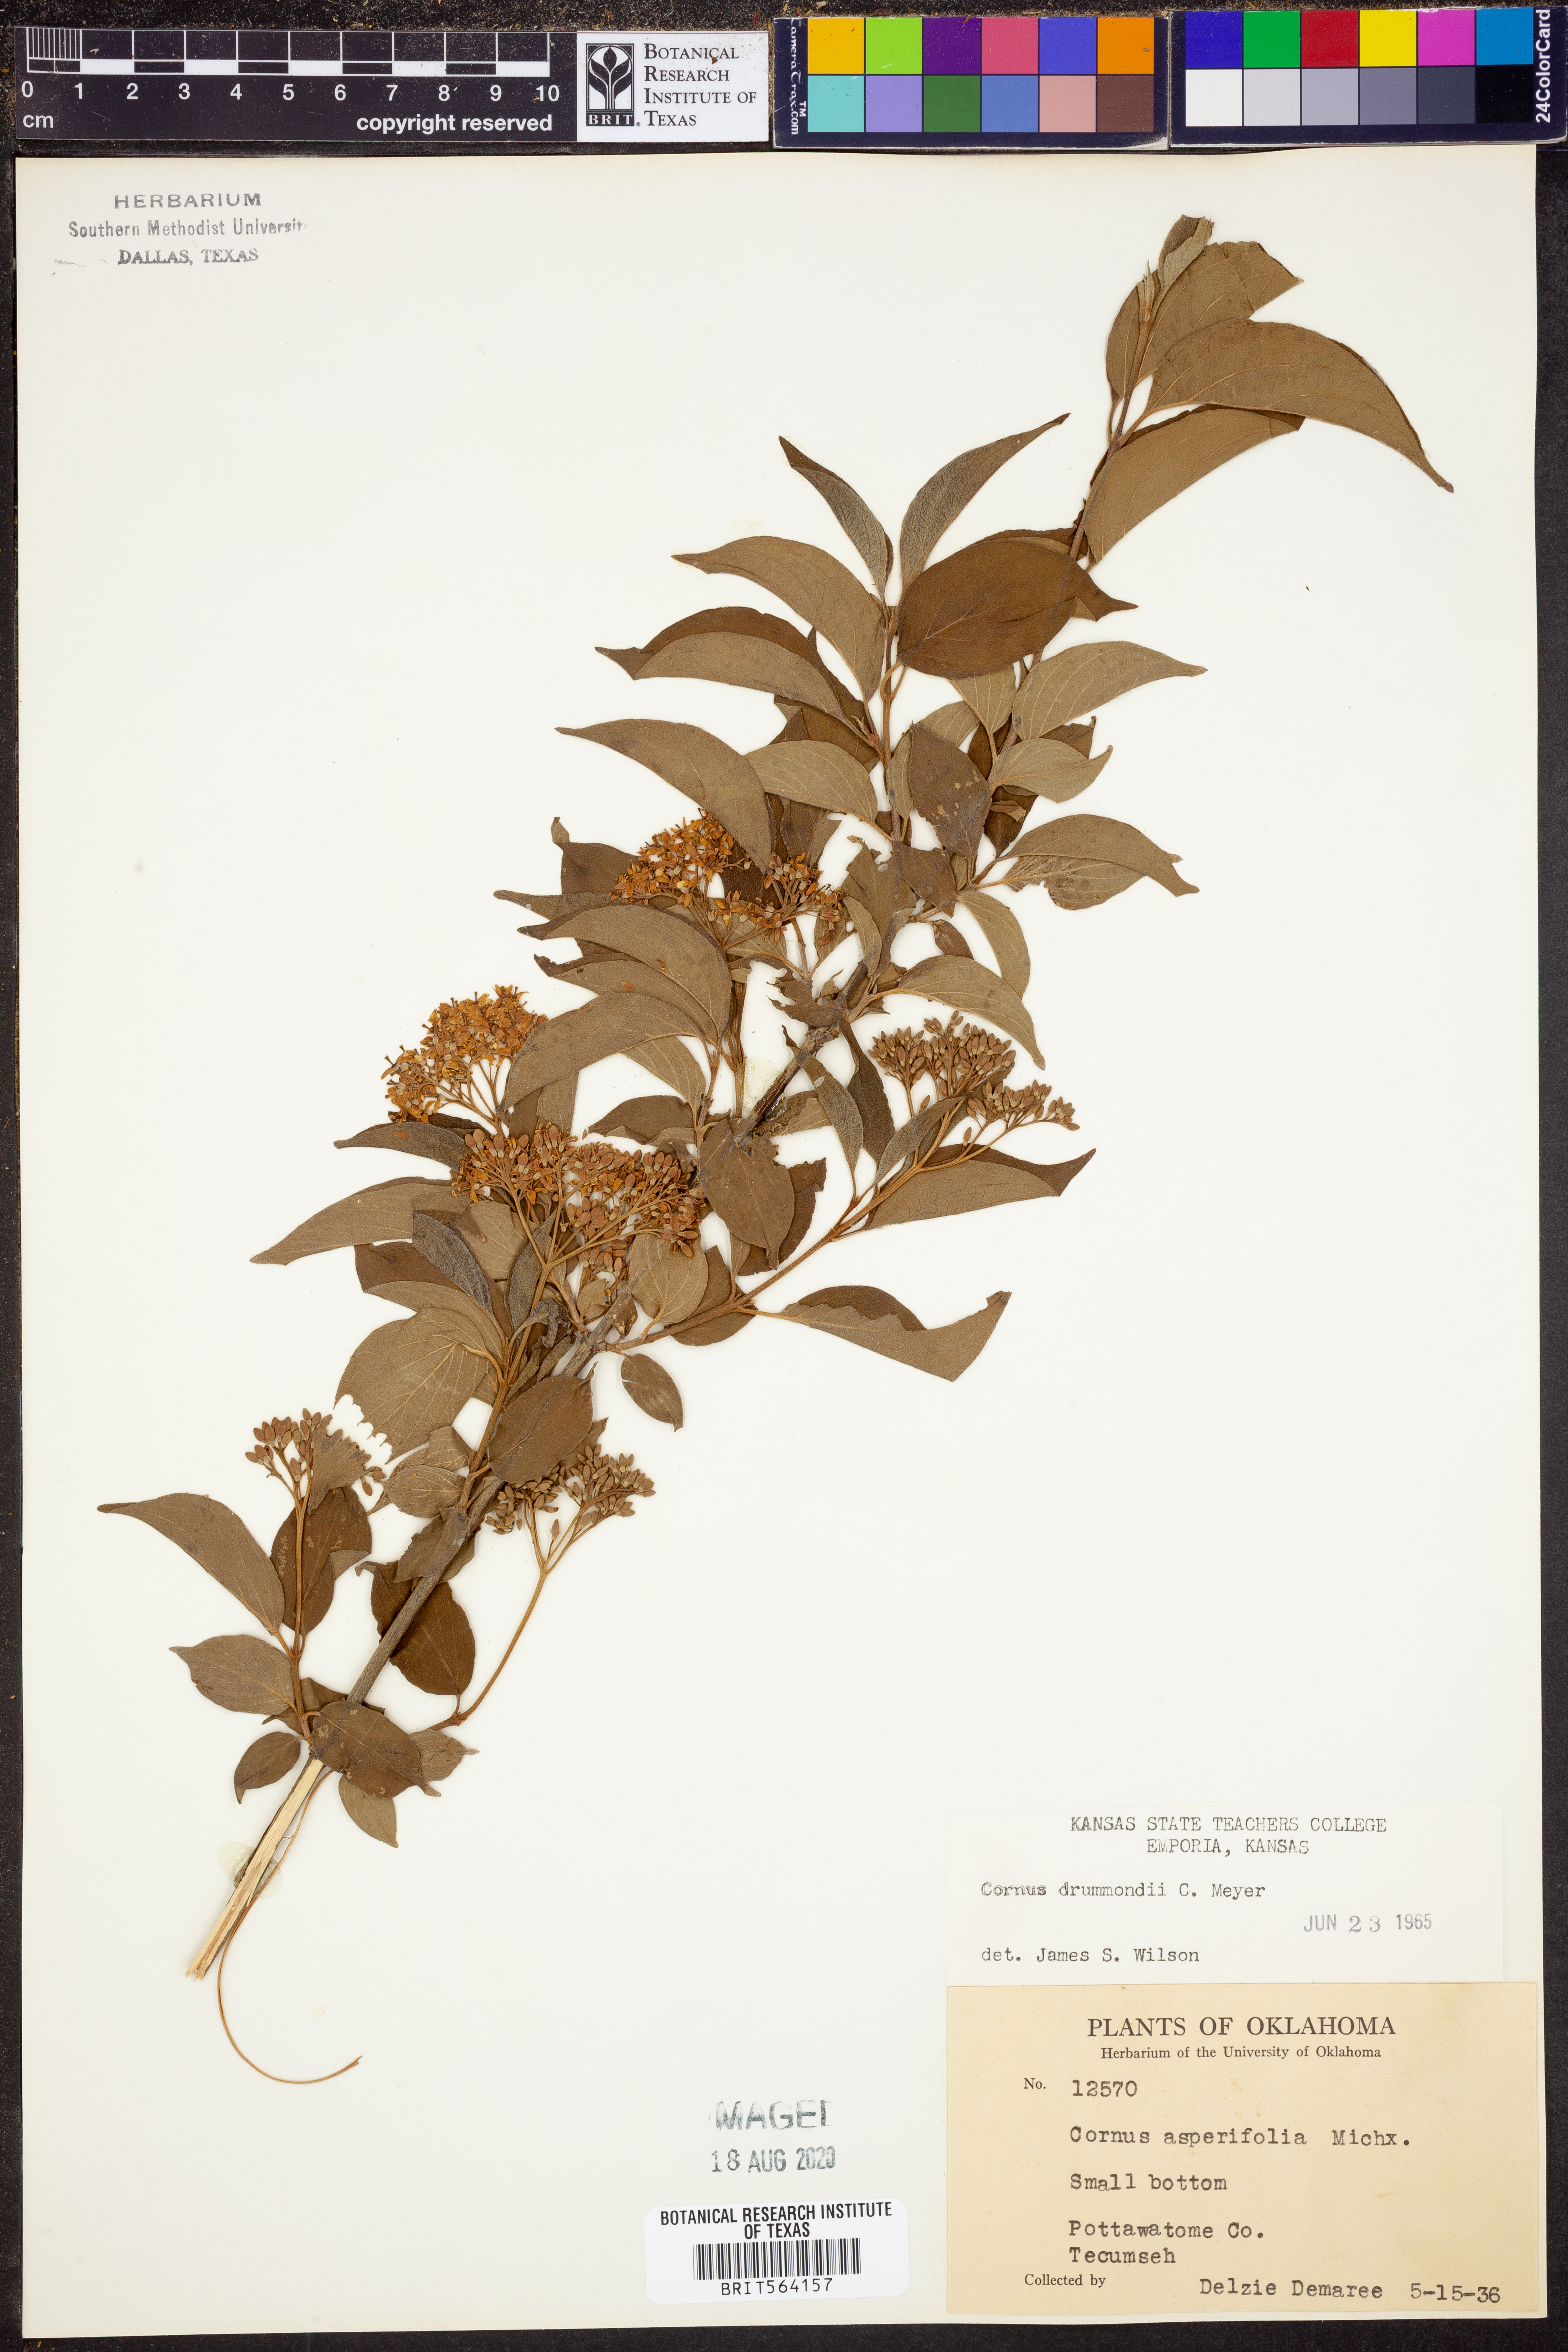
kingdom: Plantae
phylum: Tracheophyta
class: Magnoliopsida
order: Cornales
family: Cornaceae
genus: Cornus
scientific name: Cornus drummondii
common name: Rough-leaf dogwood
